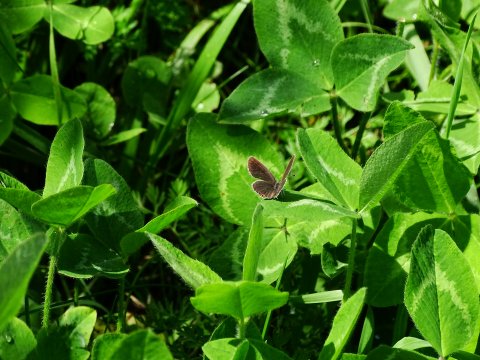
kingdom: Animalia
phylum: Arthropoda
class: Insecta
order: Lepidoptera
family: Lycaenidae
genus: Elkalyce
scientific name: Elkalyce comyntas
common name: Eastern Tailed-Blue
